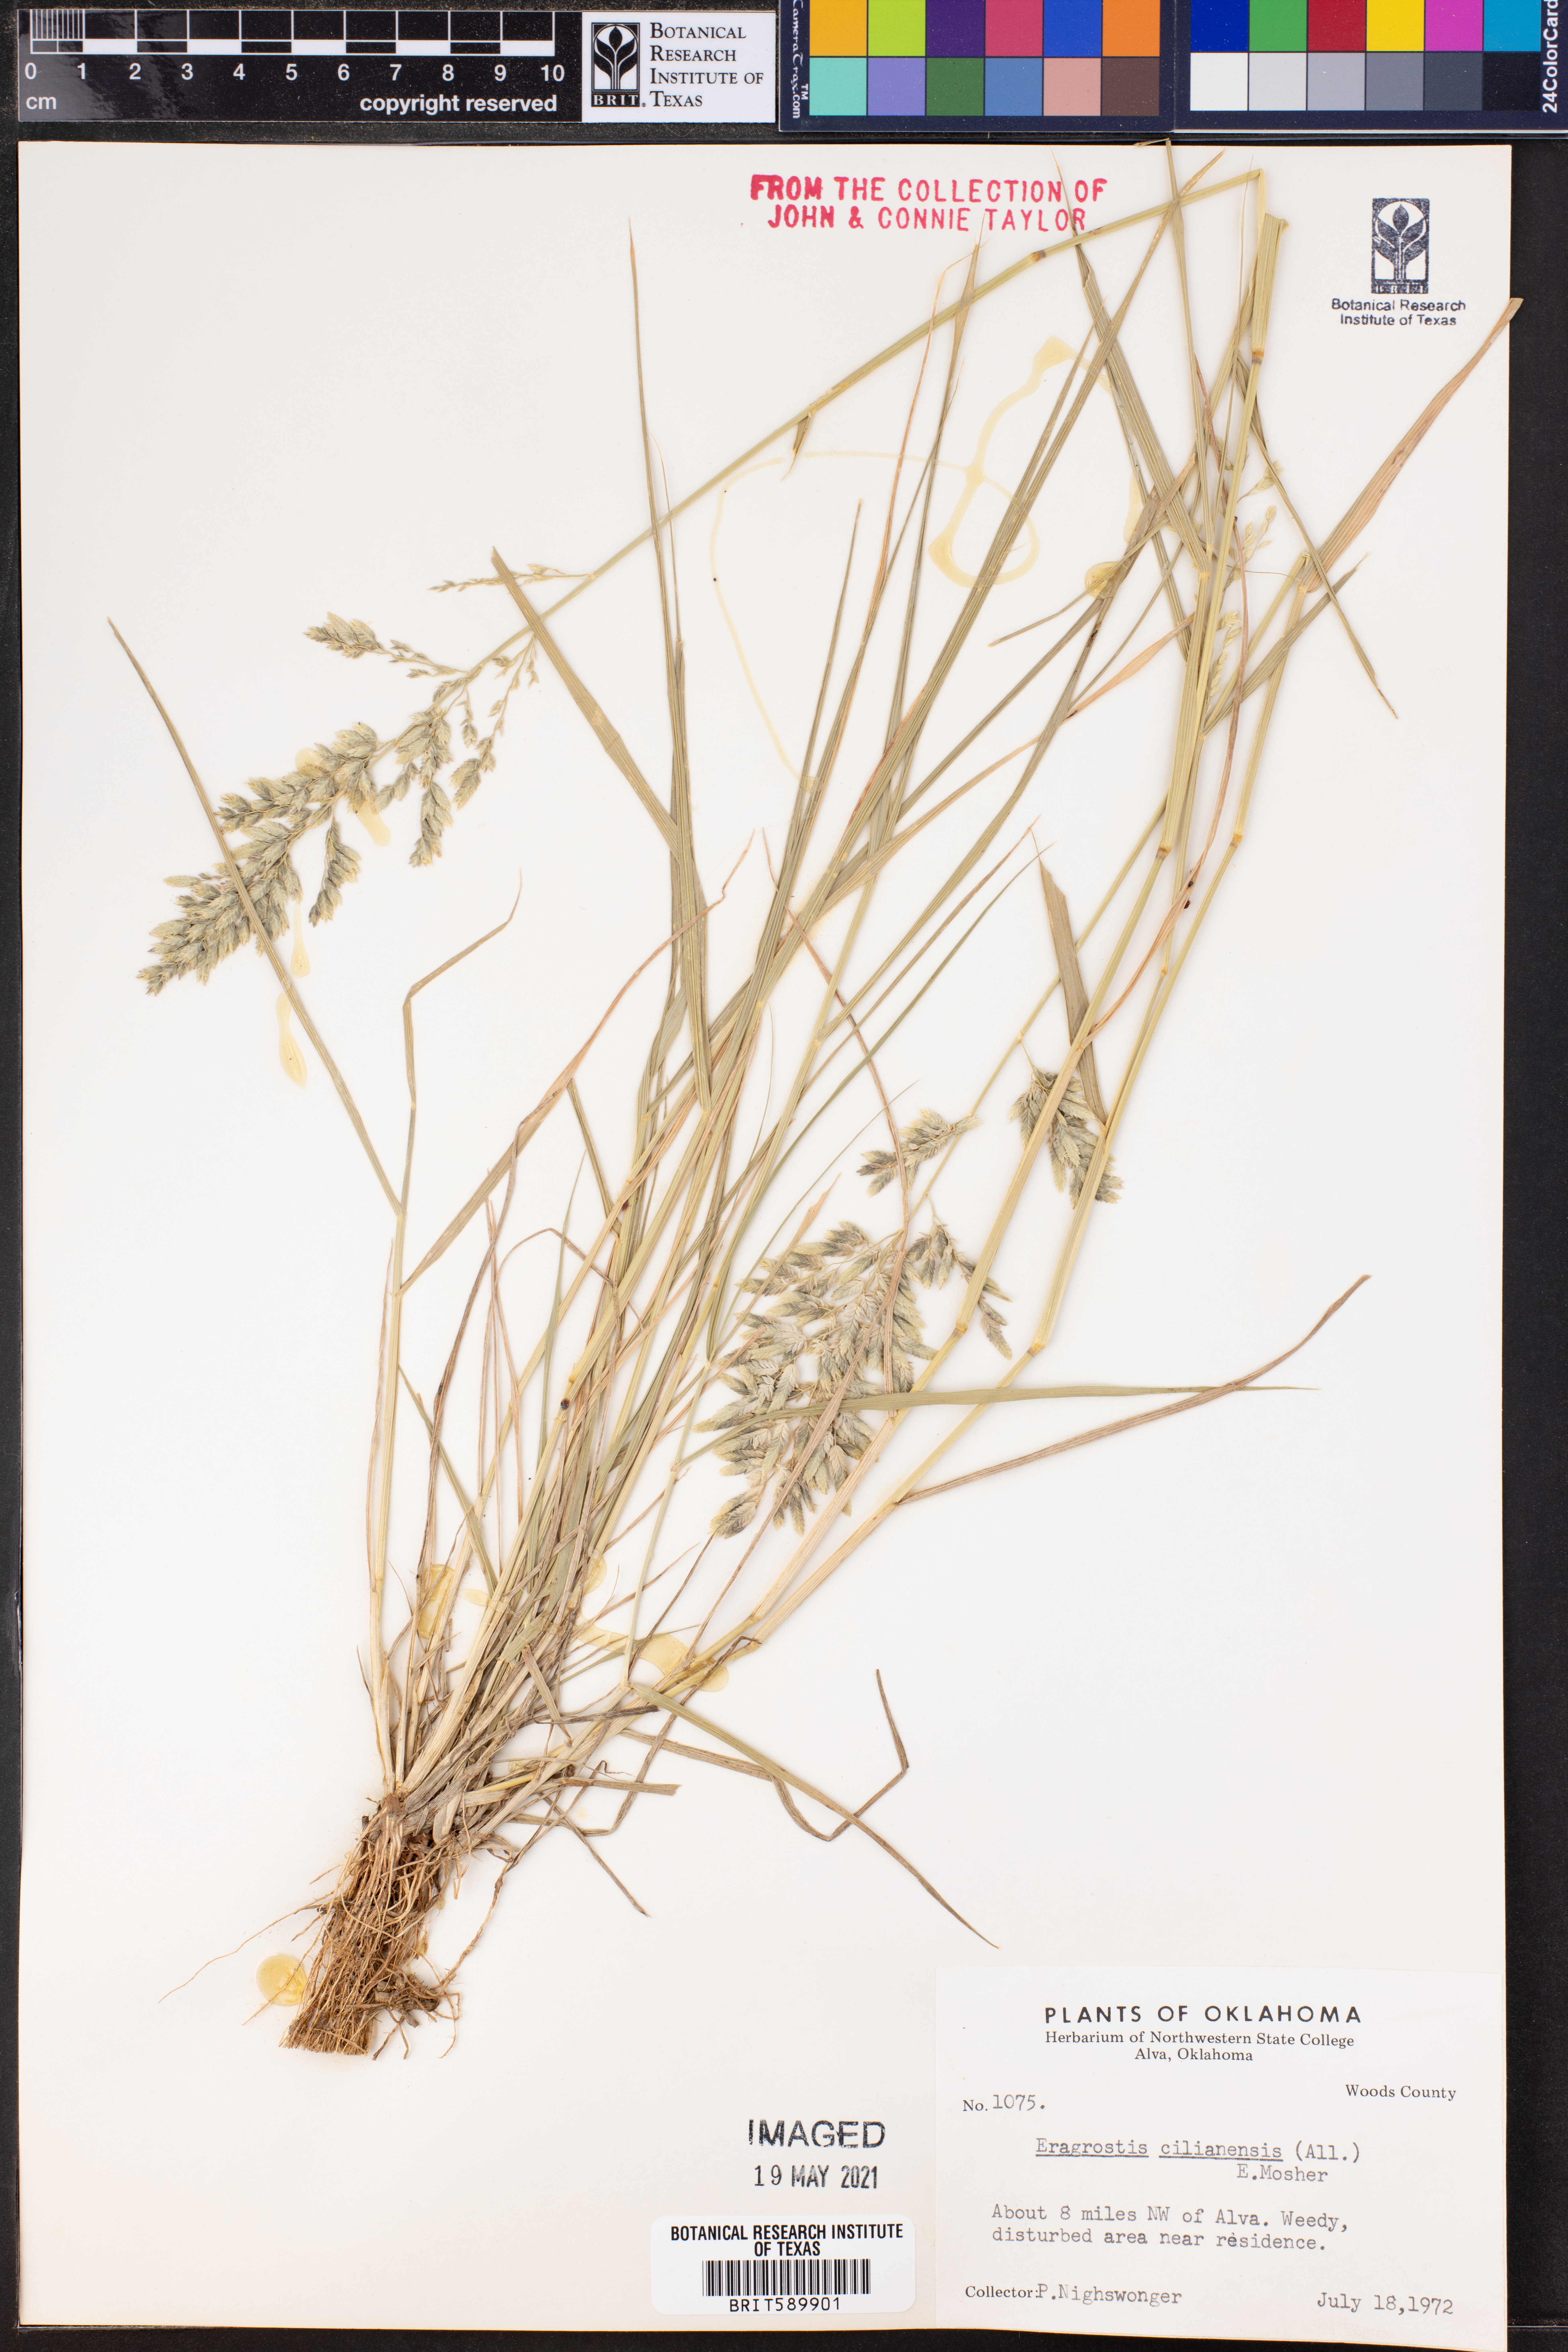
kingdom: Plantae
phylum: Tracheophyta
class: Liliopsida
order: Poales
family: Poaceae
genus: Eragrostis
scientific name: Eragrostis cilianensis
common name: Stinkgrass
